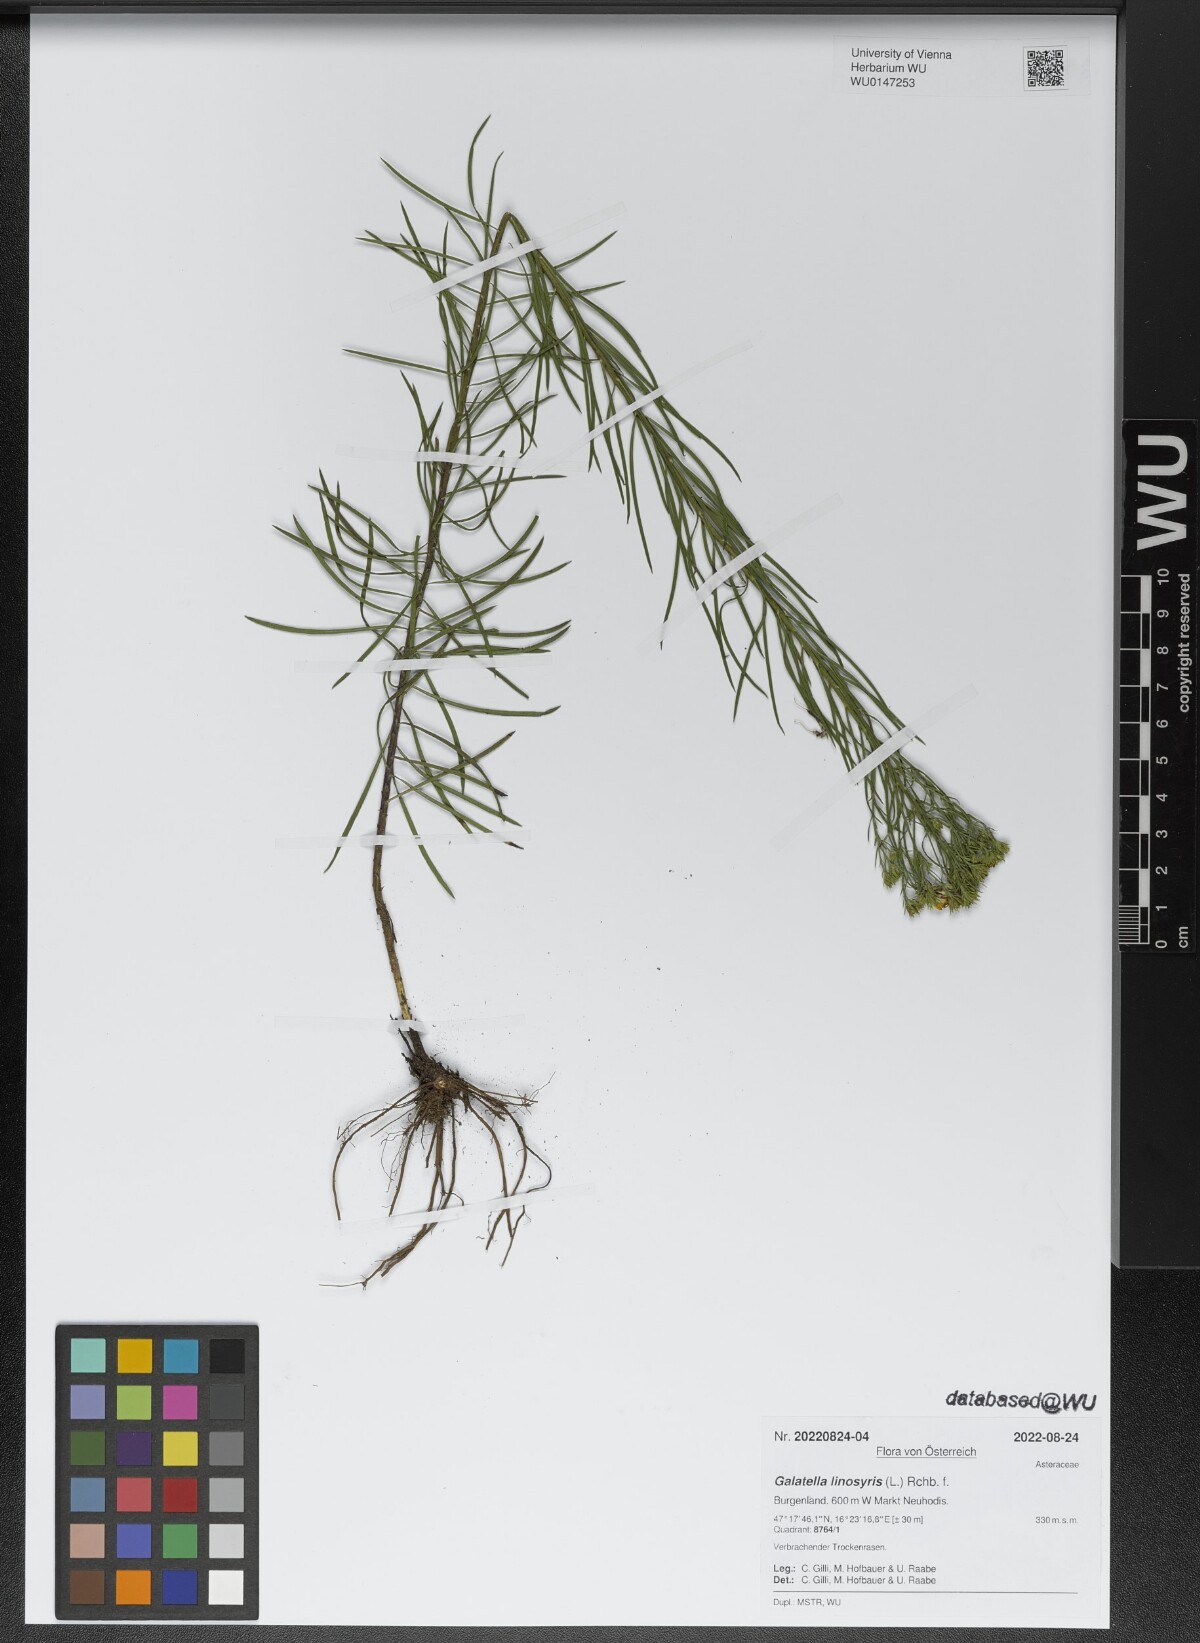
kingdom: Plantae
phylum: Tracheophyta
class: Magnoliopsida
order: Asterales
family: Asteraceae
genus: Galatella
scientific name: Galatella linosyris
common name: Goldilocks aster
